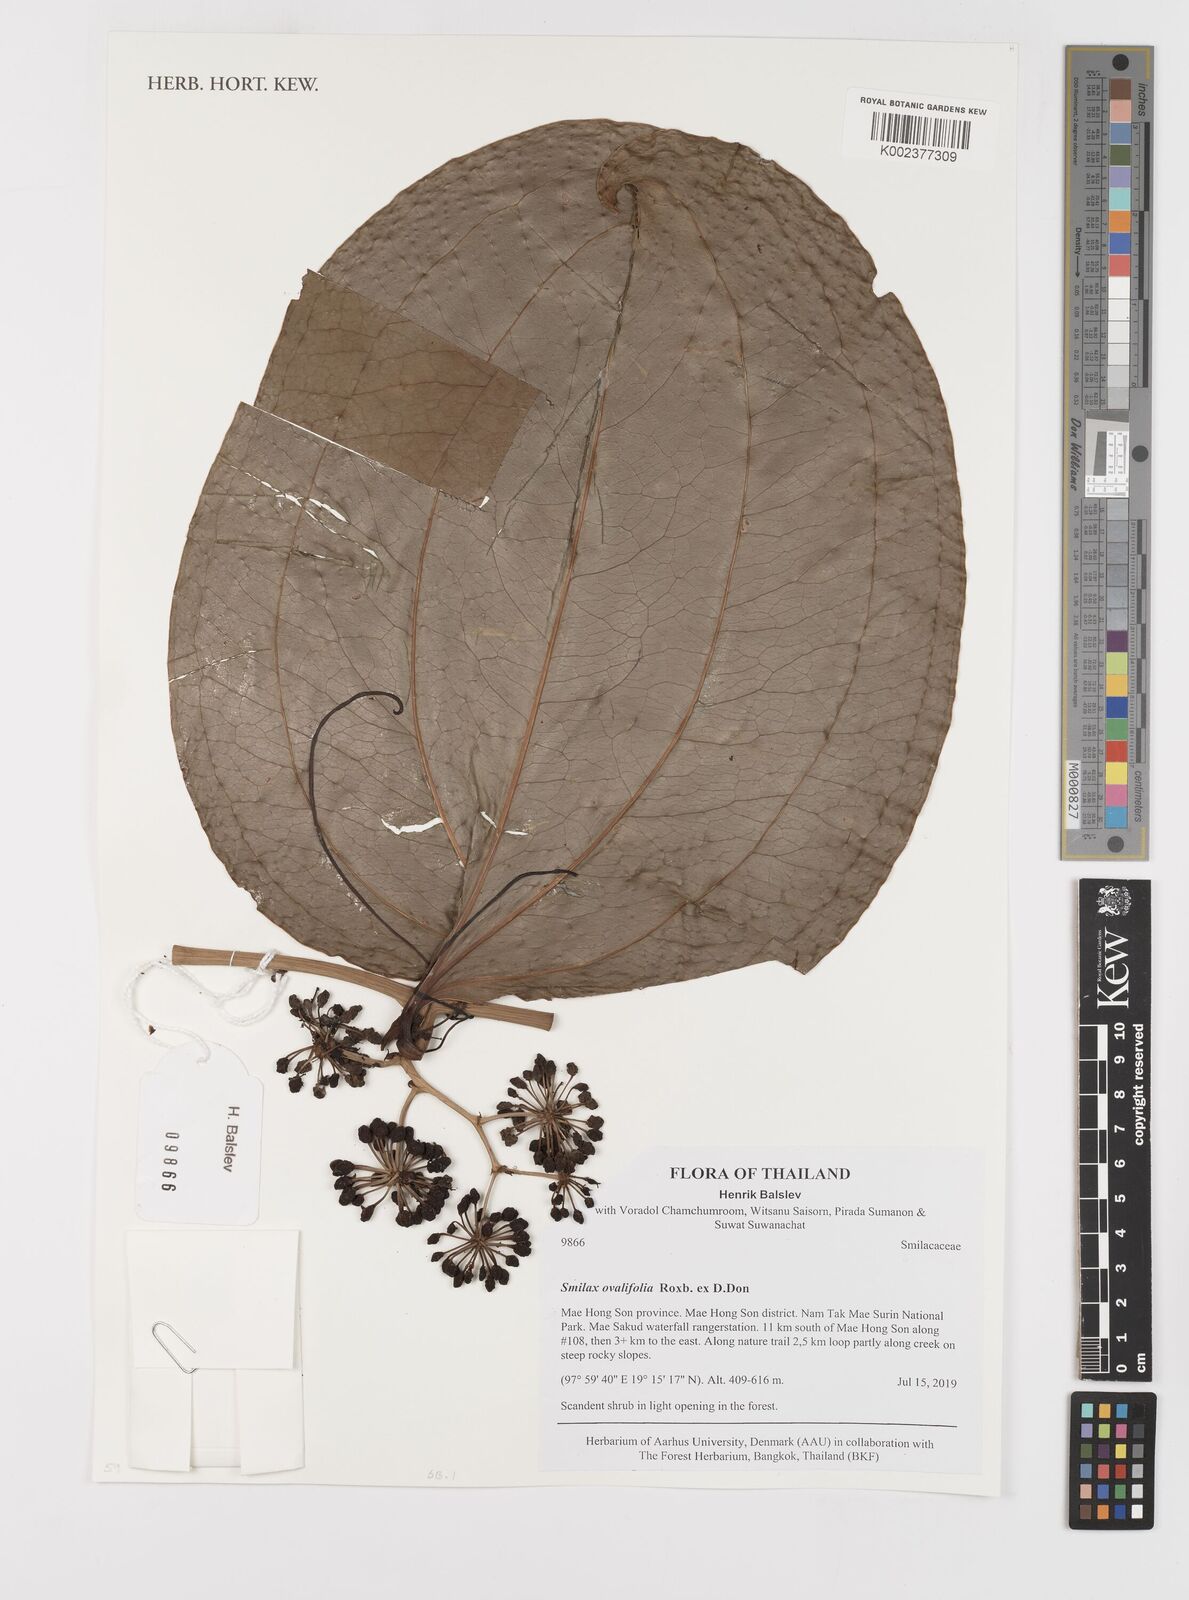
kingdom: Plantae
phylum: Tracheophyta
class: Liliopsida
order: Liliales
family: Smilacaceae
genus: Smilax
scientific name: Smilax ovalifolia
